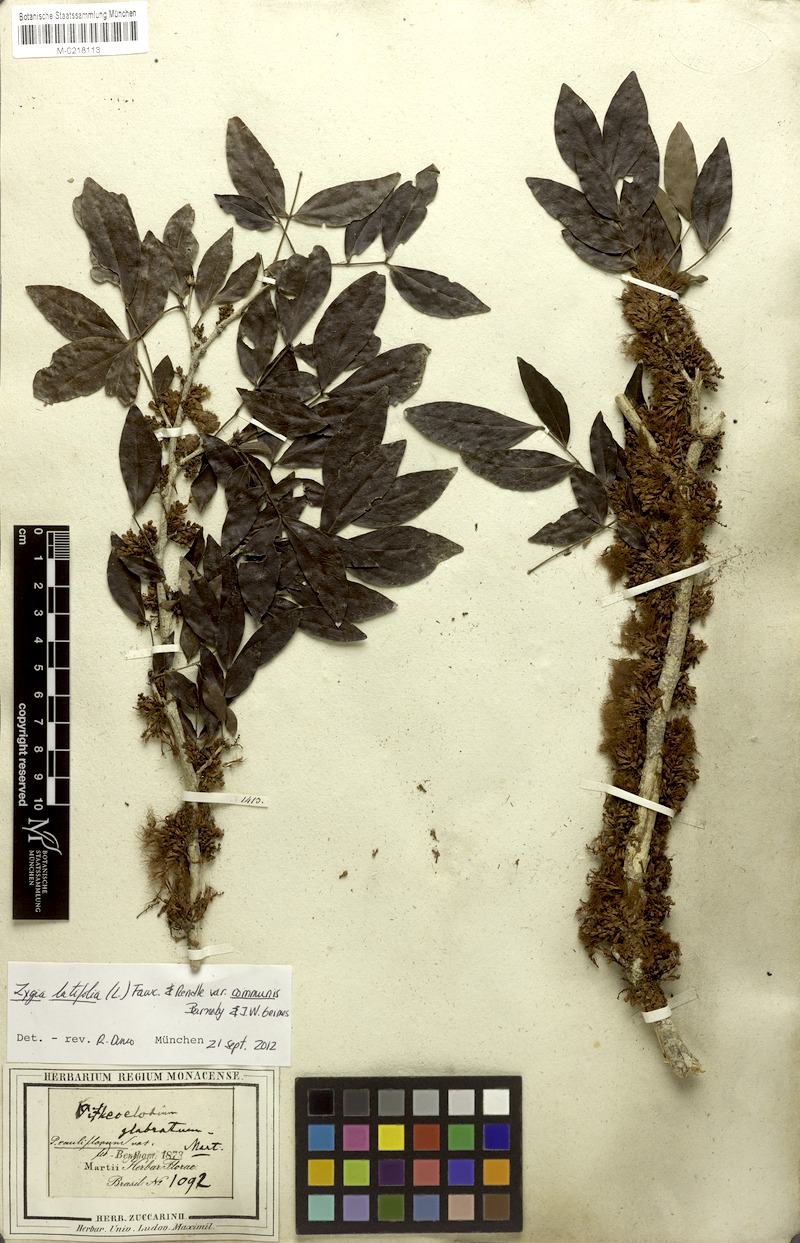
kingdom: Plantae
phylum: Tracheophyta
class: Magnoliopsida
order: Fabales
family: Fabaceae
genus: Zygia
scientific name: Zygia cauliflora
